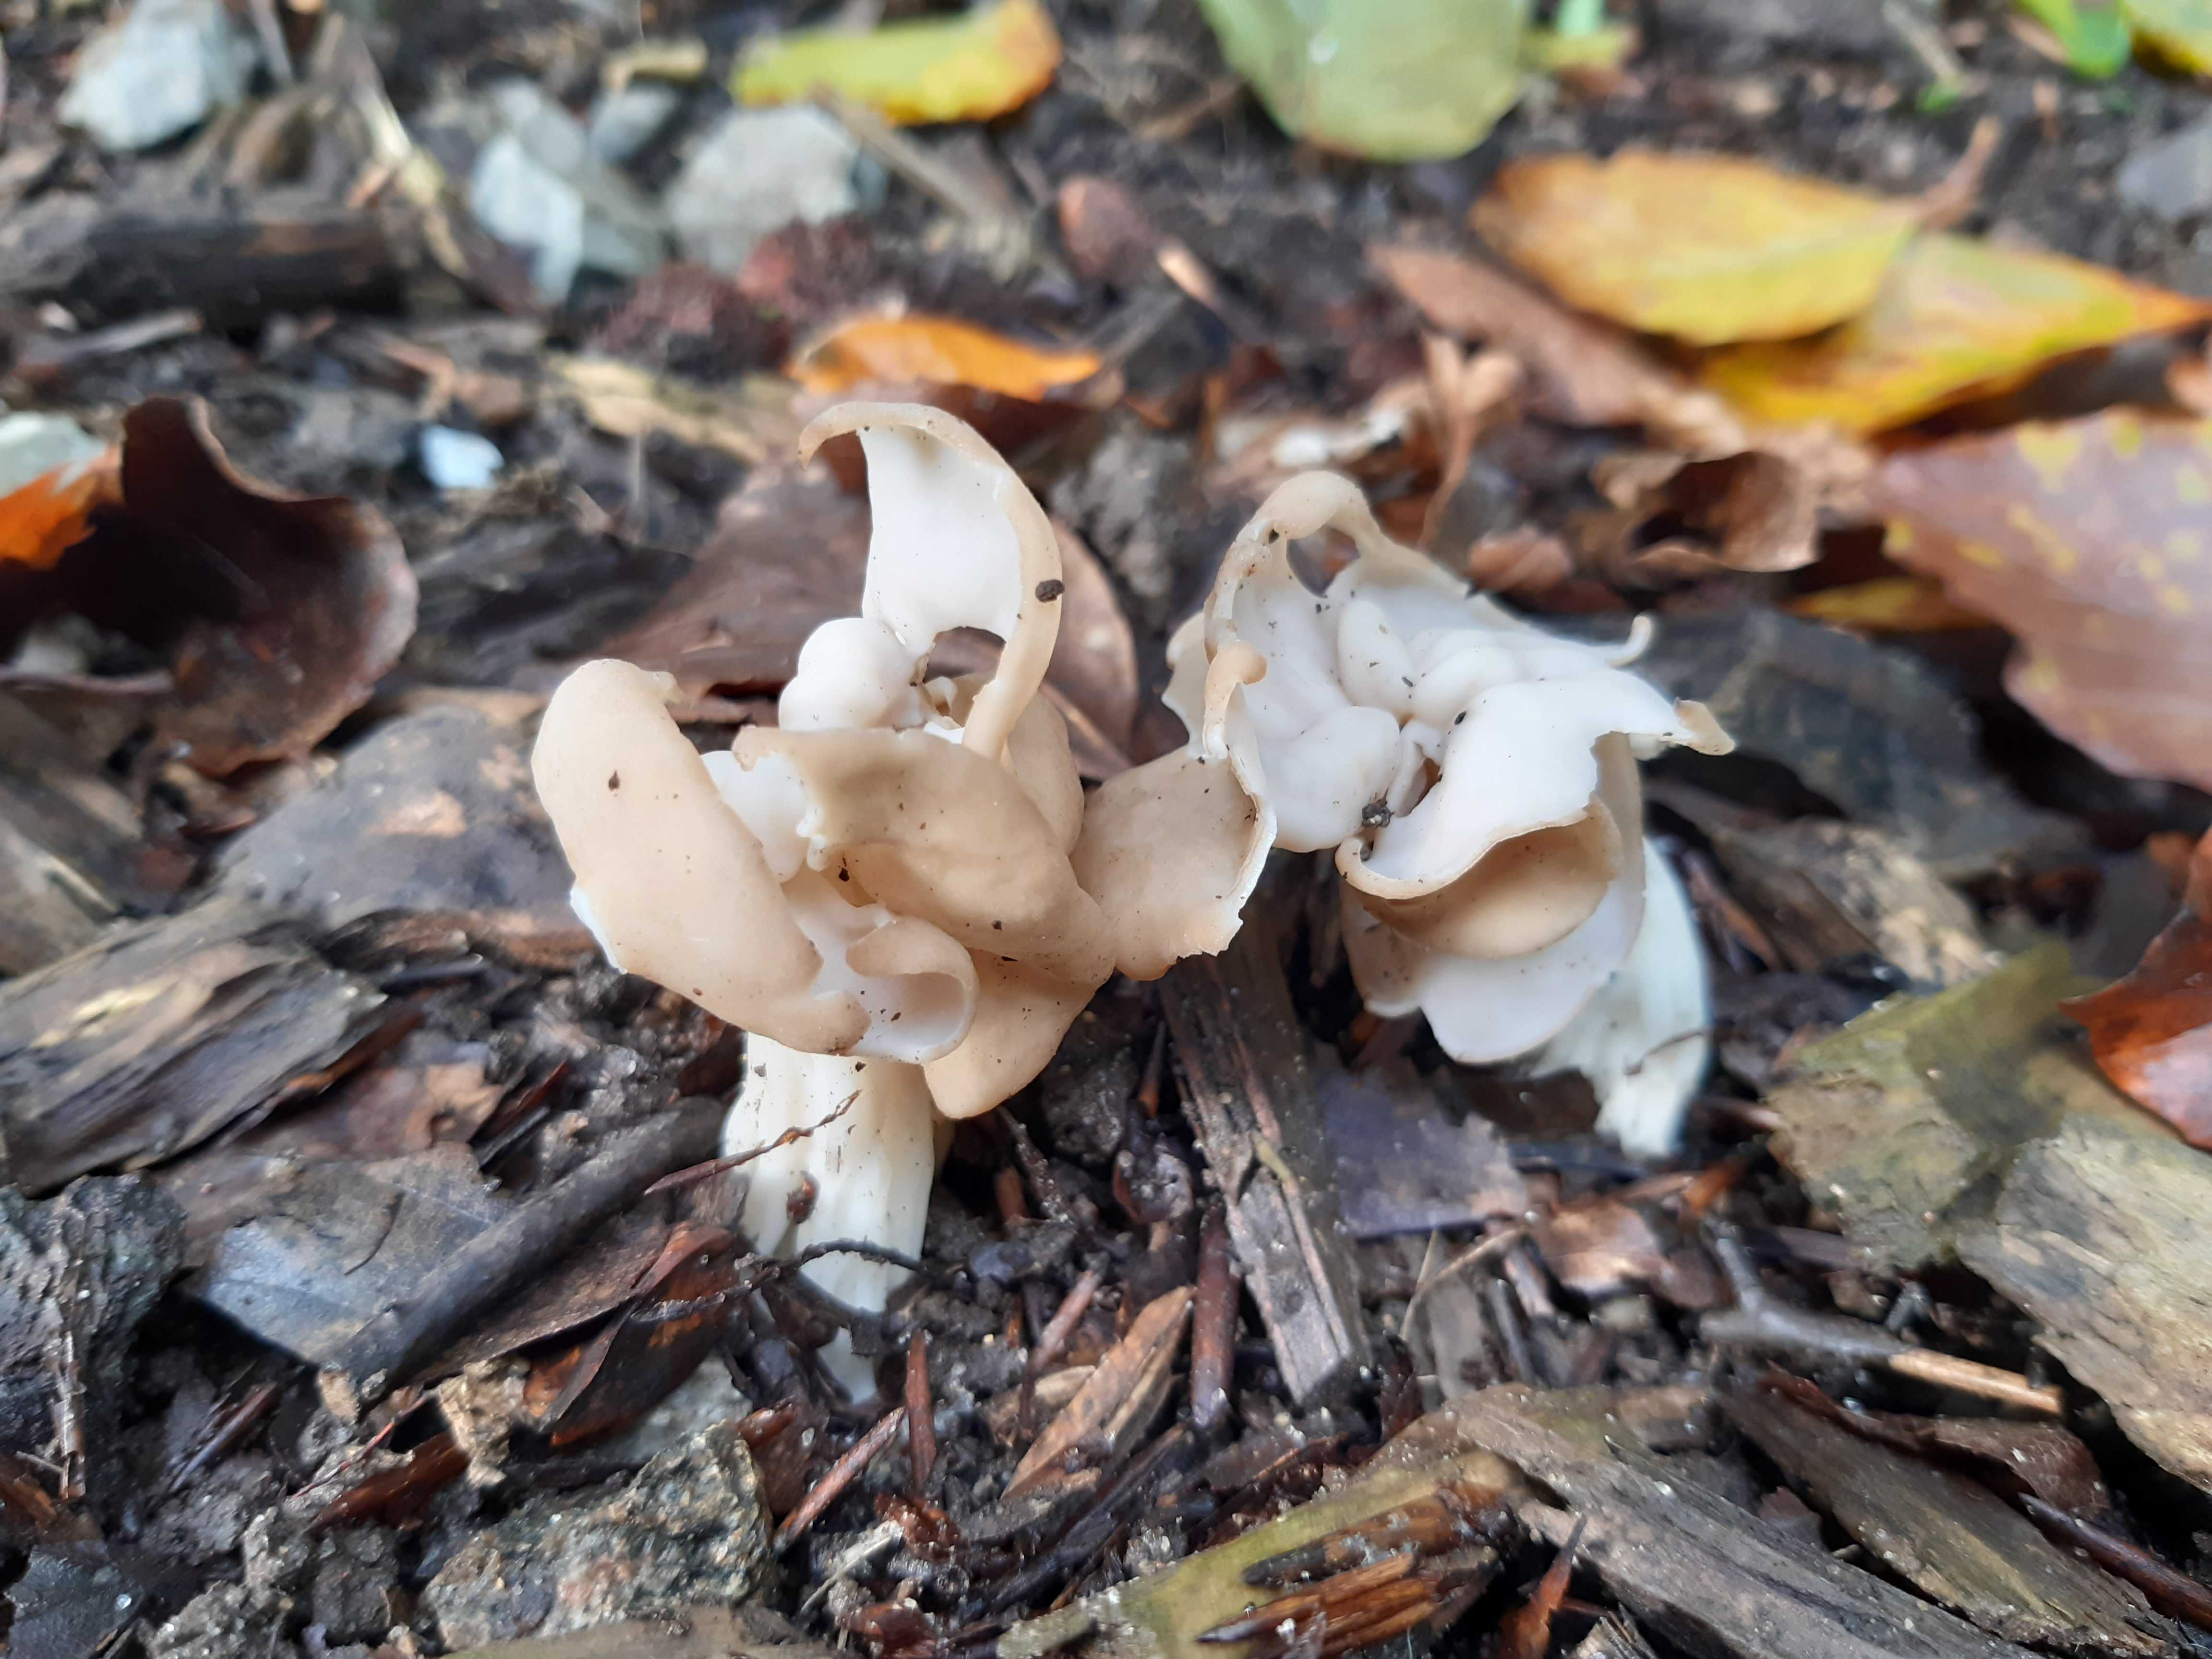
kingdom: Fungi
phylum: Ascomycota
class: Pezizomycetes
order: Pezizales
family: Helvellaceae
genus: Helvella
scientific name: Helvella crispa
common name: kruset foldhat
